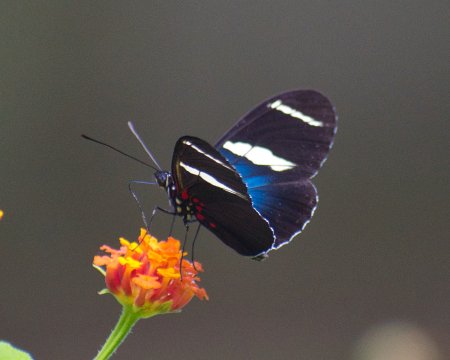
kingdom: Animalia
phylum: Arthropoda
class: Insecta
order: Lepidoptera
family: Nymphalidae
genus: Heliconius
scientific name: Heliconius sara
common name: Sara Longwing
